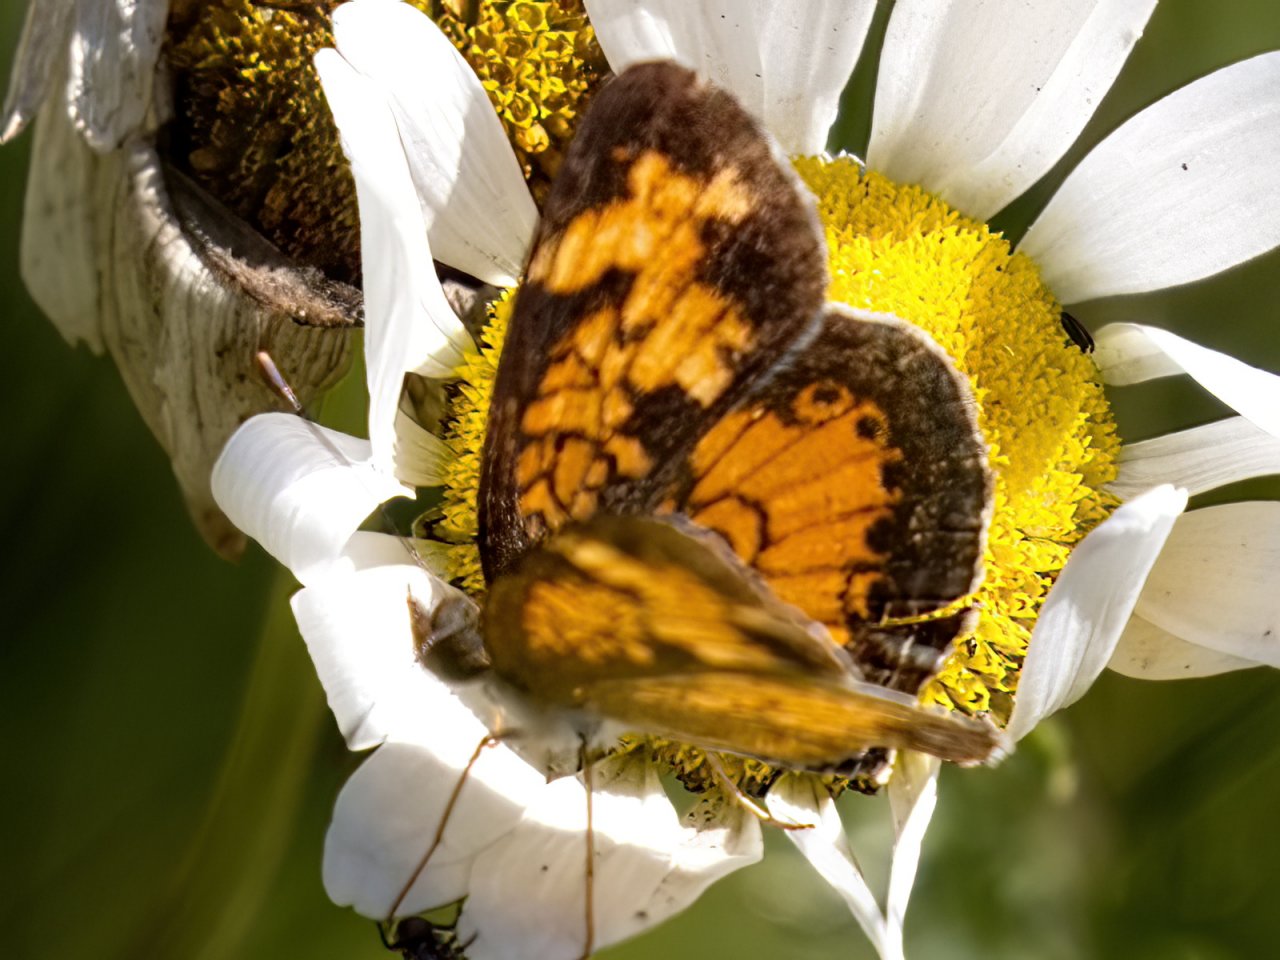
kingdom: Animalia
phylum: Arthropoda
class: Insecta
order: Lepidoptera
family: Nymphalidae
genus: Phyciodes
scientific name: Phyciodes tharos
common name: Northern Crescent
